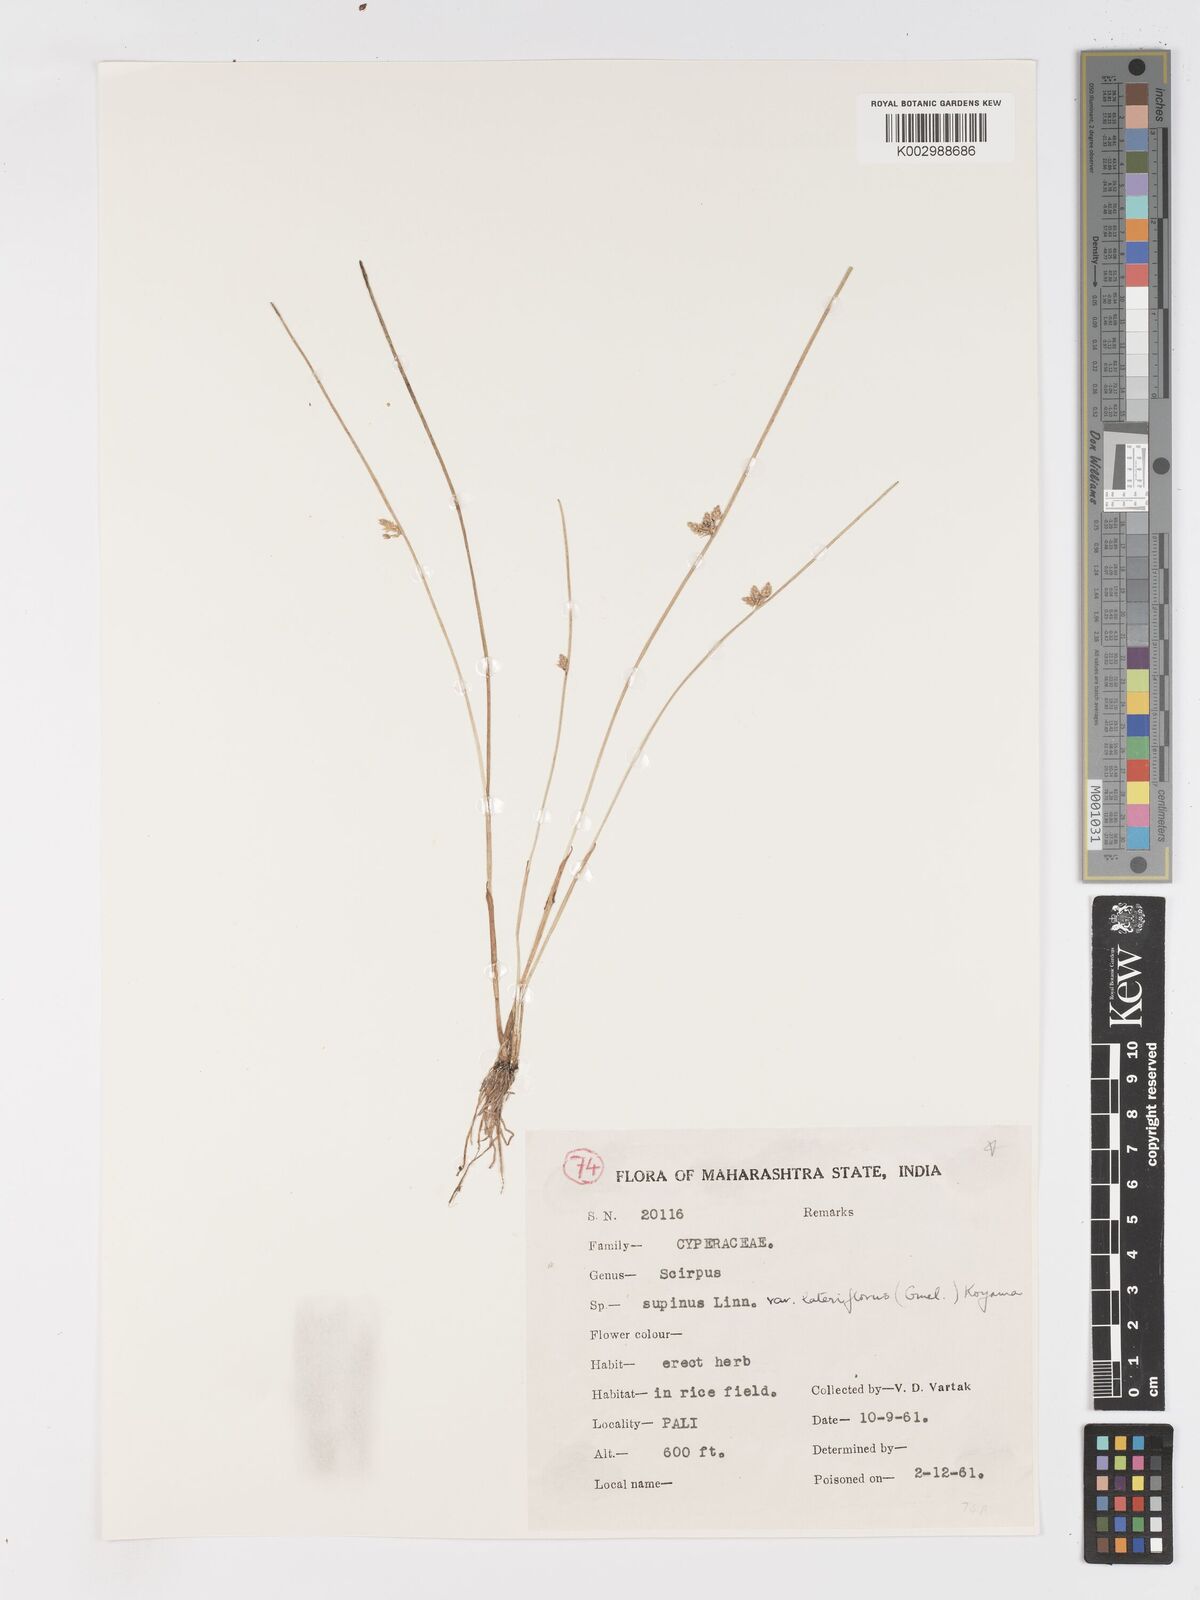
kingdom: Plantae
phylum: Tracheophyta
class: Liliopsida
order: Poales
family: Cyperaceae
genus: Schoenoplectiella
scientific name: Schoenoplectiella lateriflora
